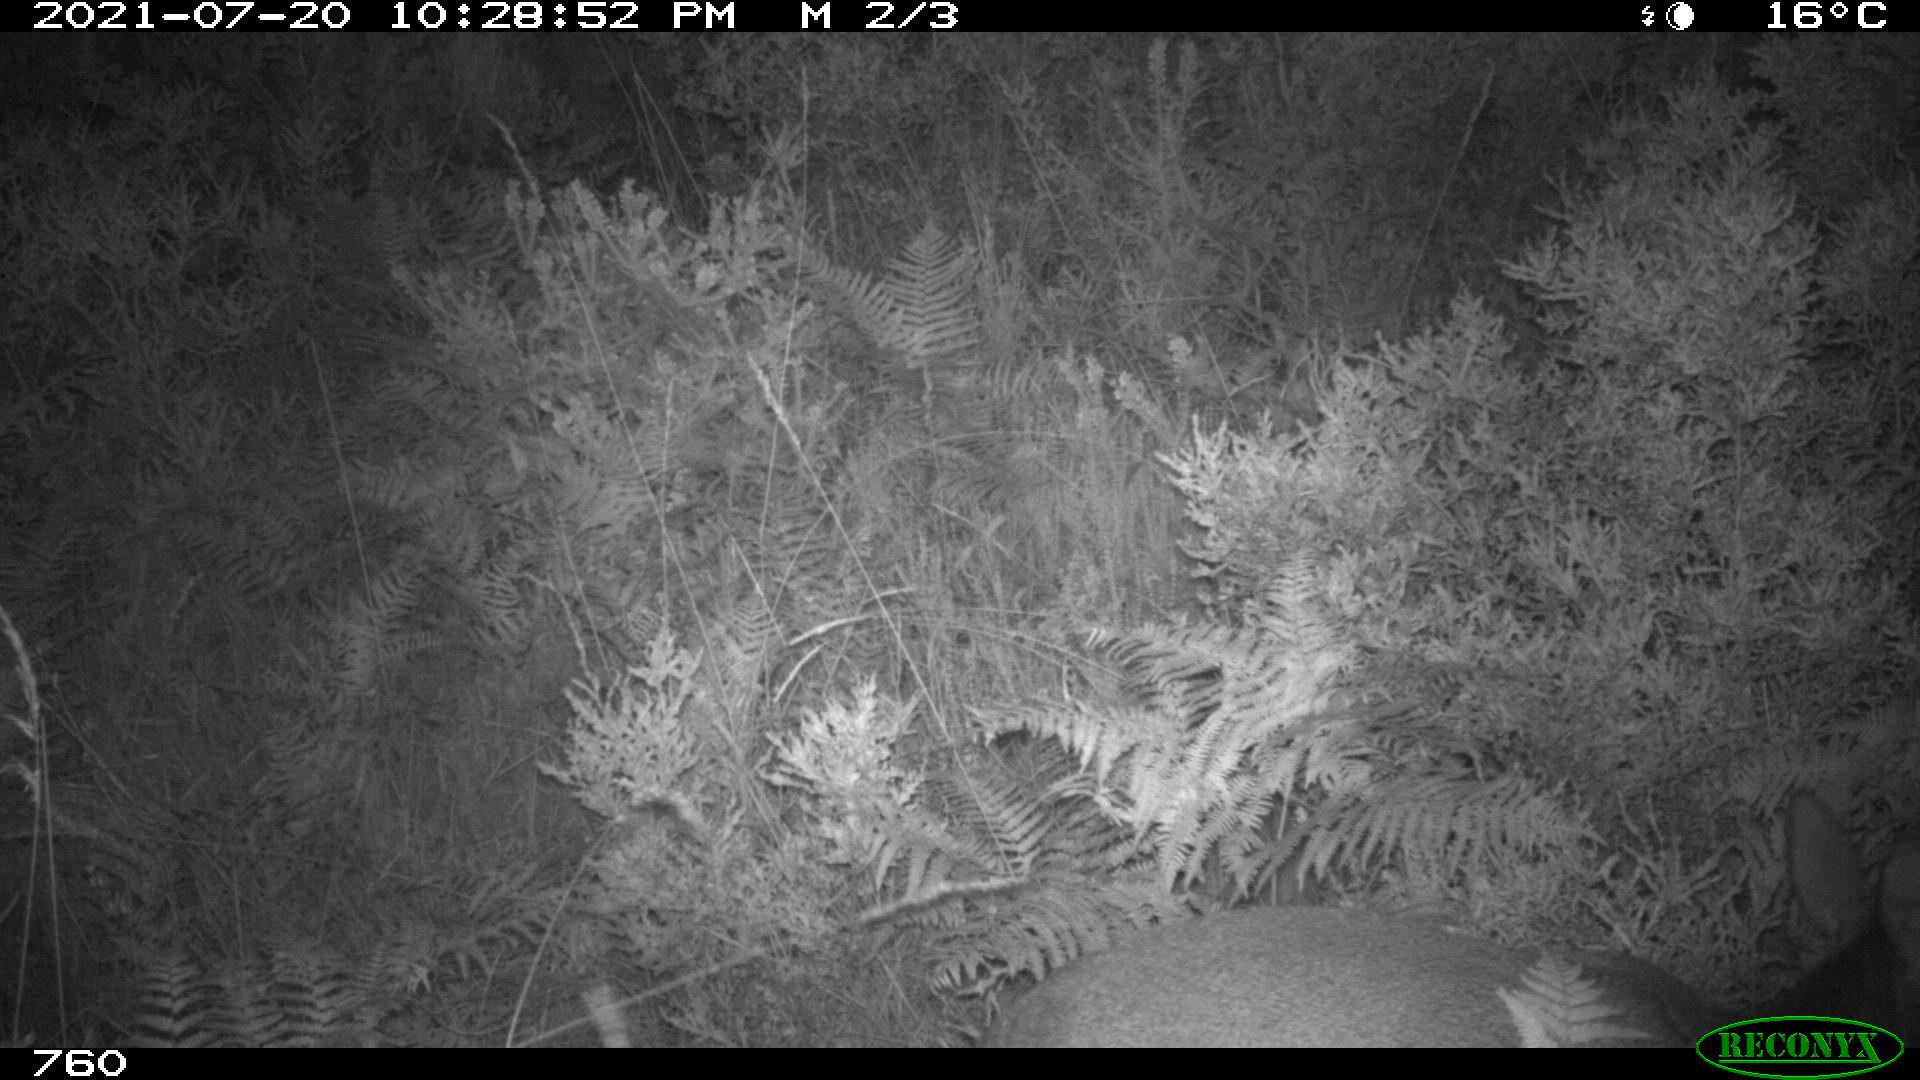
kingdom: Animalia
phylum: Chordata
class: Mammalia
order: Artiodactyla
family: Cervidae
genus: Capreolus
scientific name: Capreolus capreolus
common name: Western roe deer
